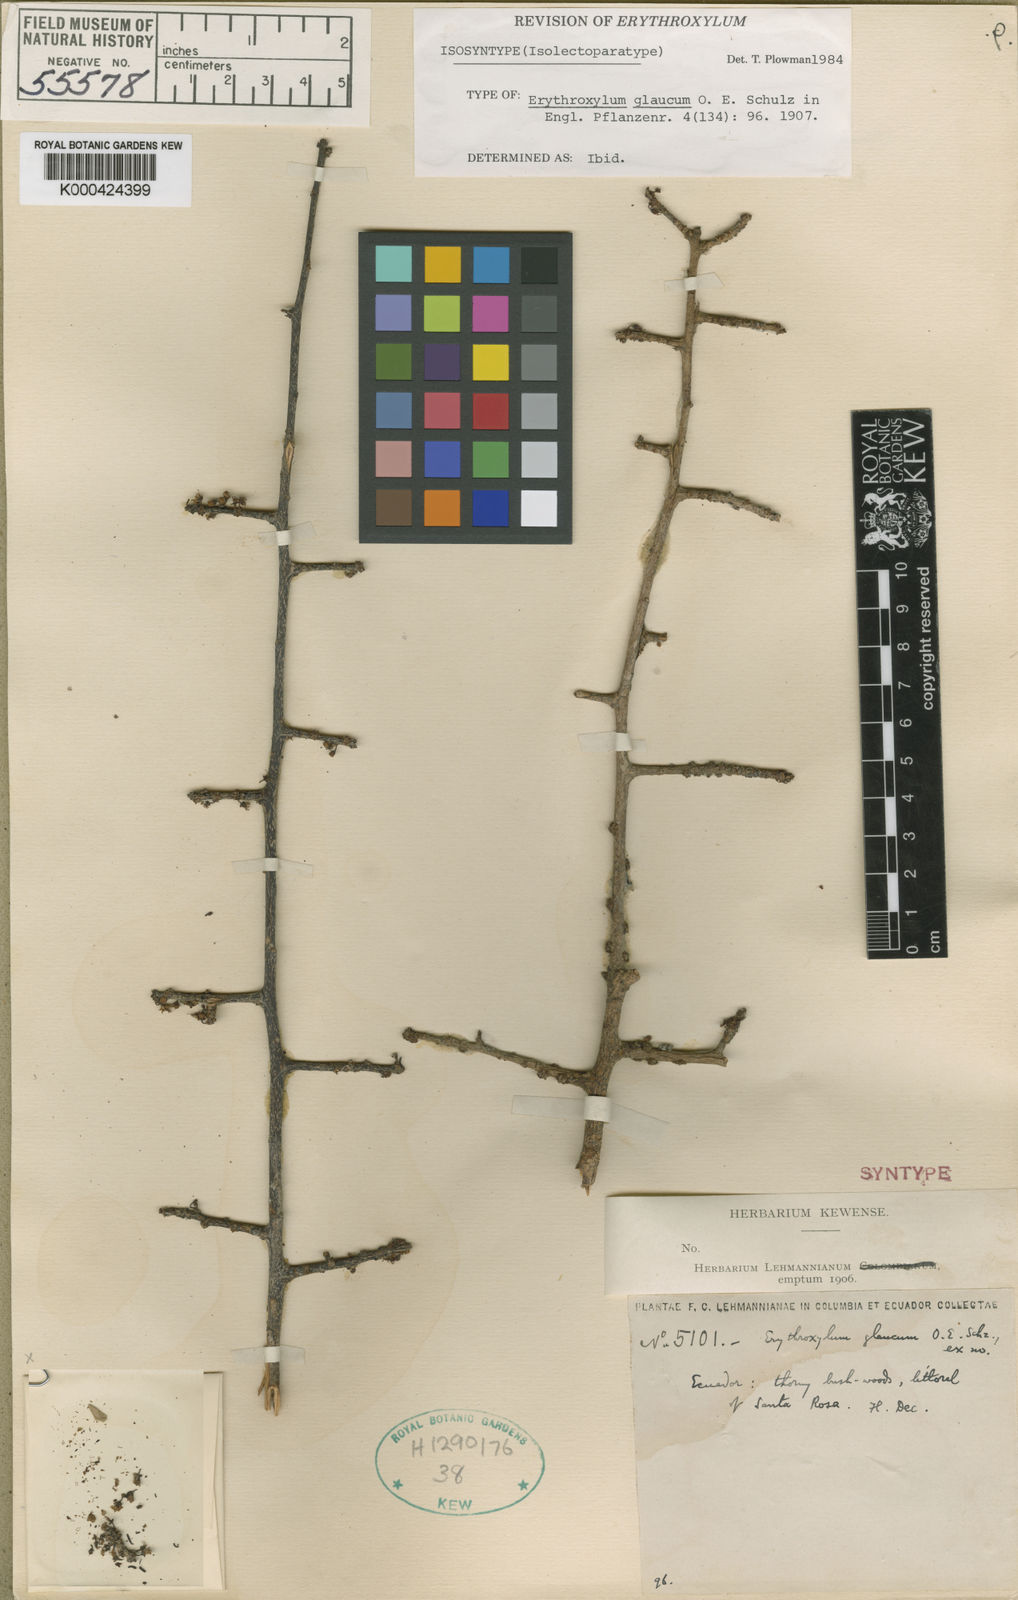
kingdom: Plantae
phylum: Tracheophyta
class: Magnoliopsida
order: Malpighiales
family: Erythroxylaceae
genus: Erythroxylum
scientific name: Erythroxylum glaucum
